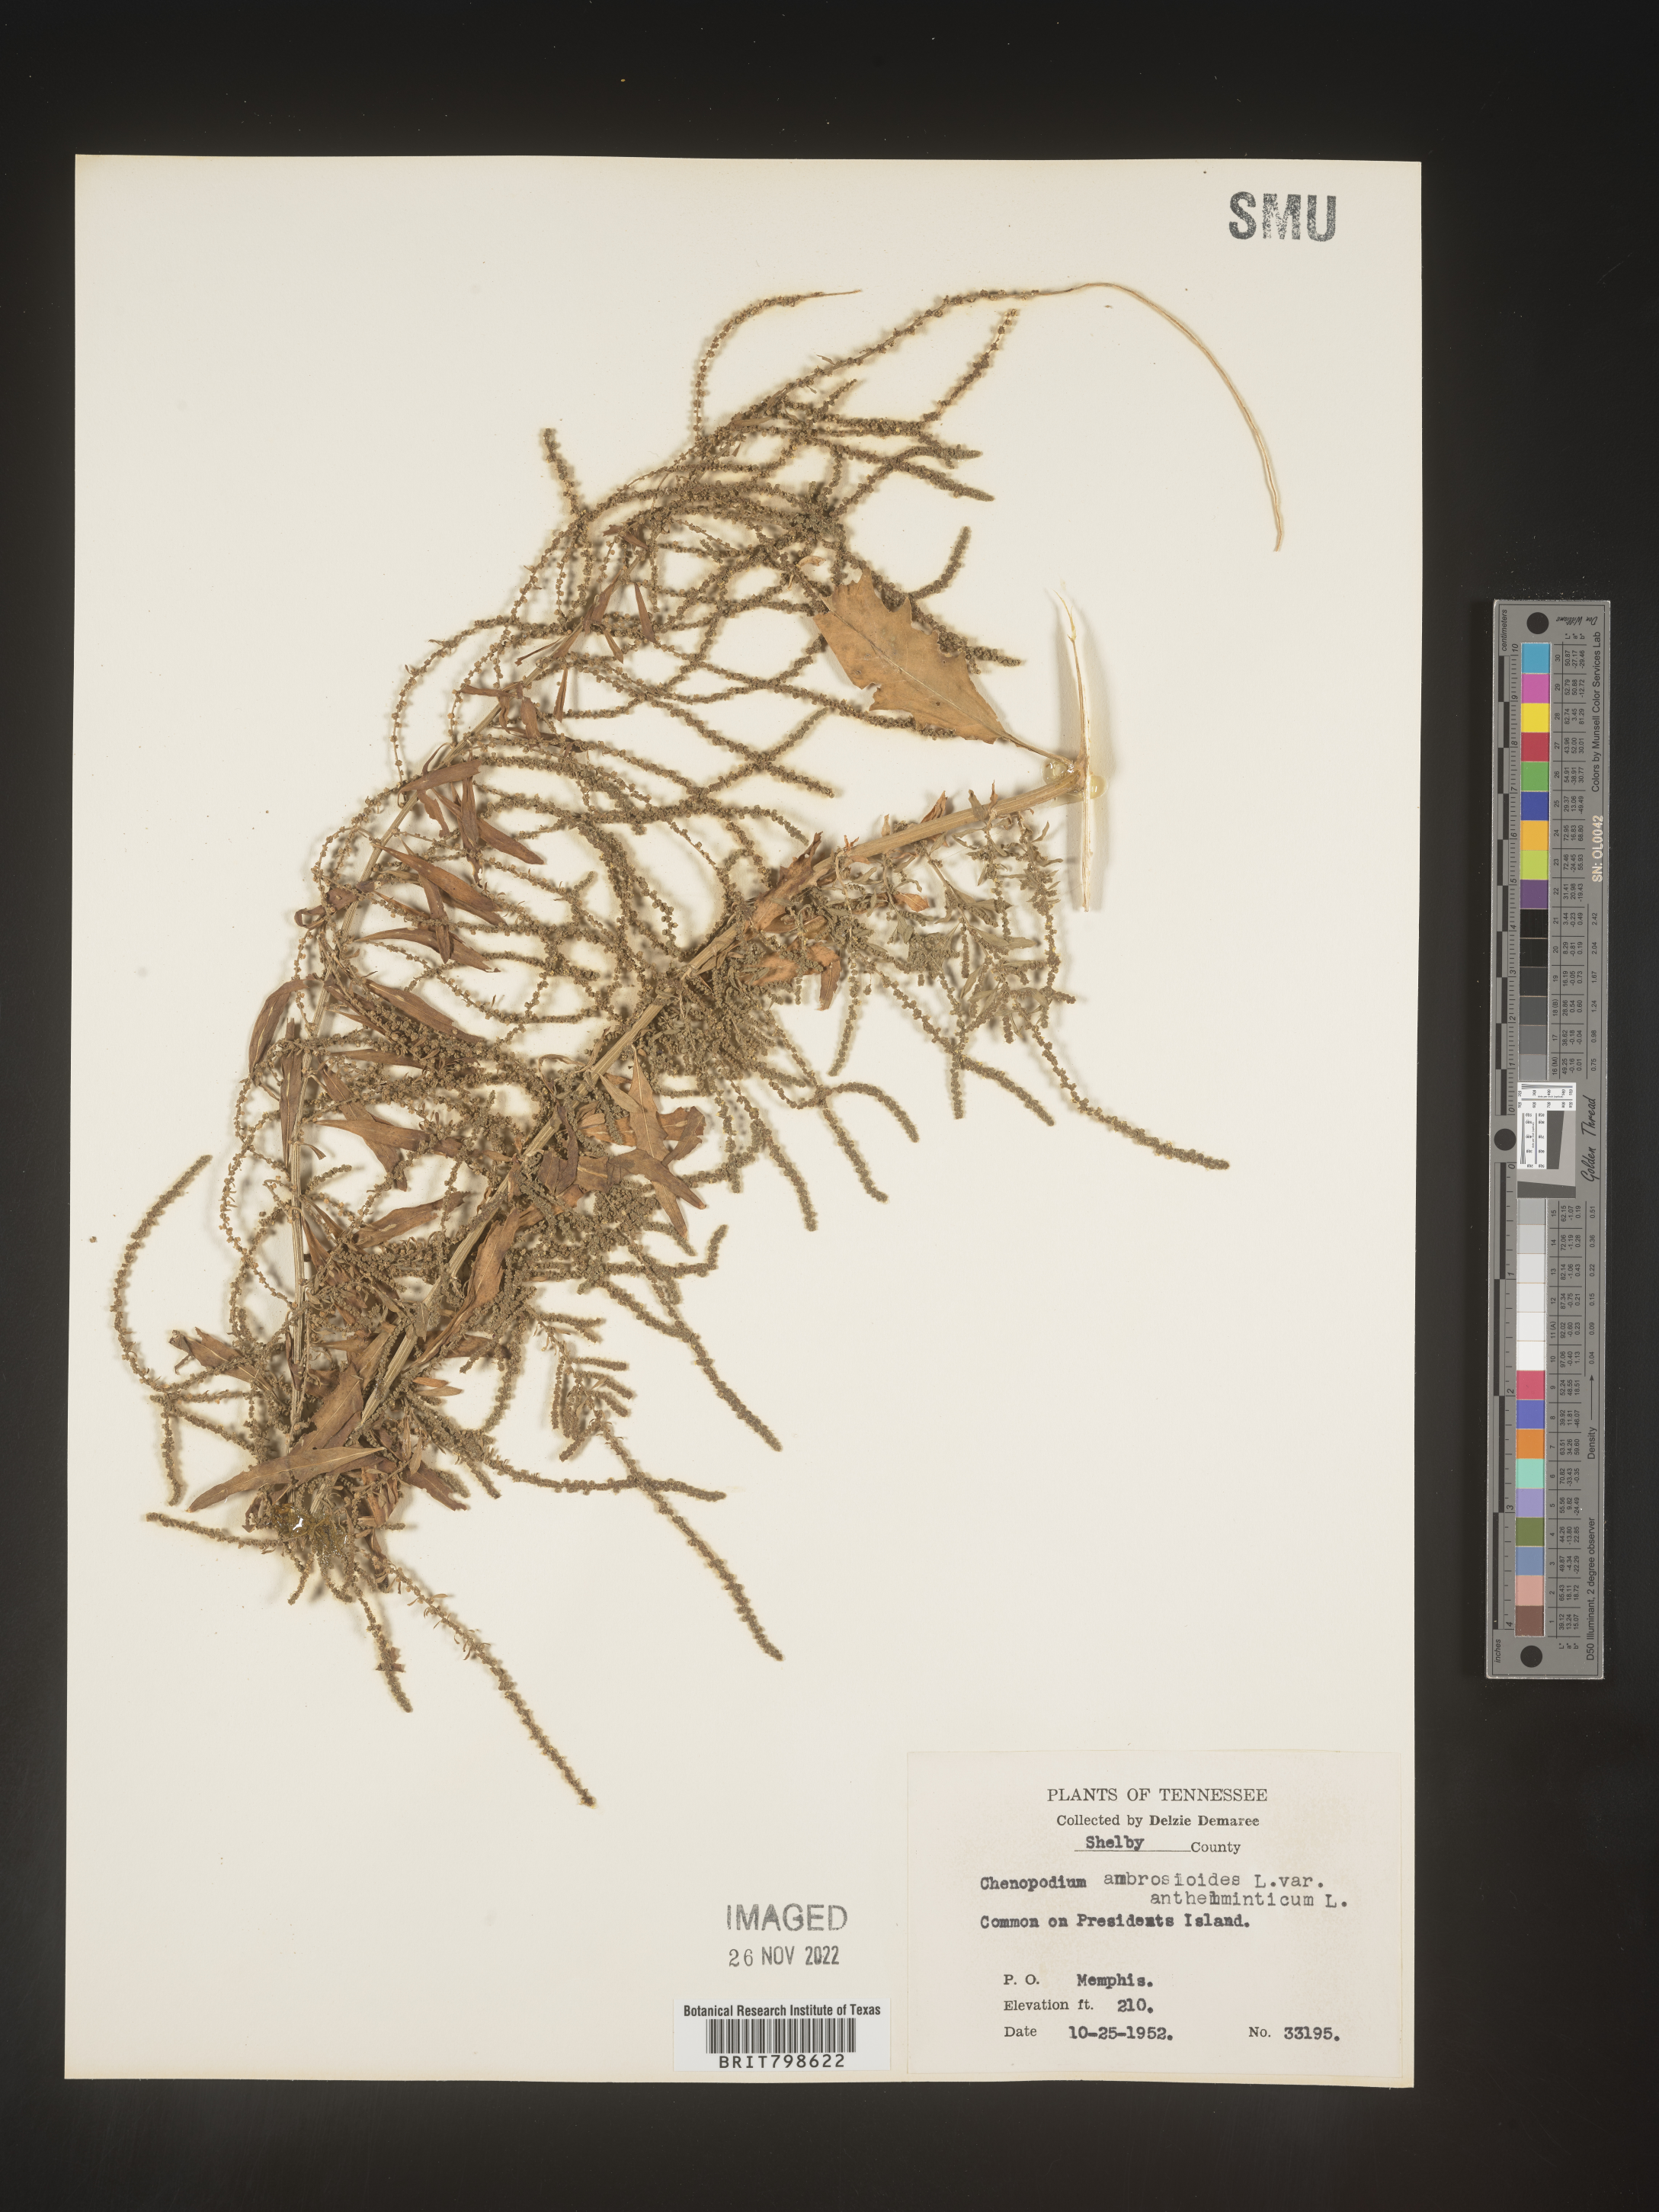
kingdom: Plantae
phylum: Tracheophyta
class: Magnoliopsida
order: Caryophyllales
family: Amaranthaceae
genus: Dysphania
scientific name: Dysphania ambrosioides
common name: Wormseed
